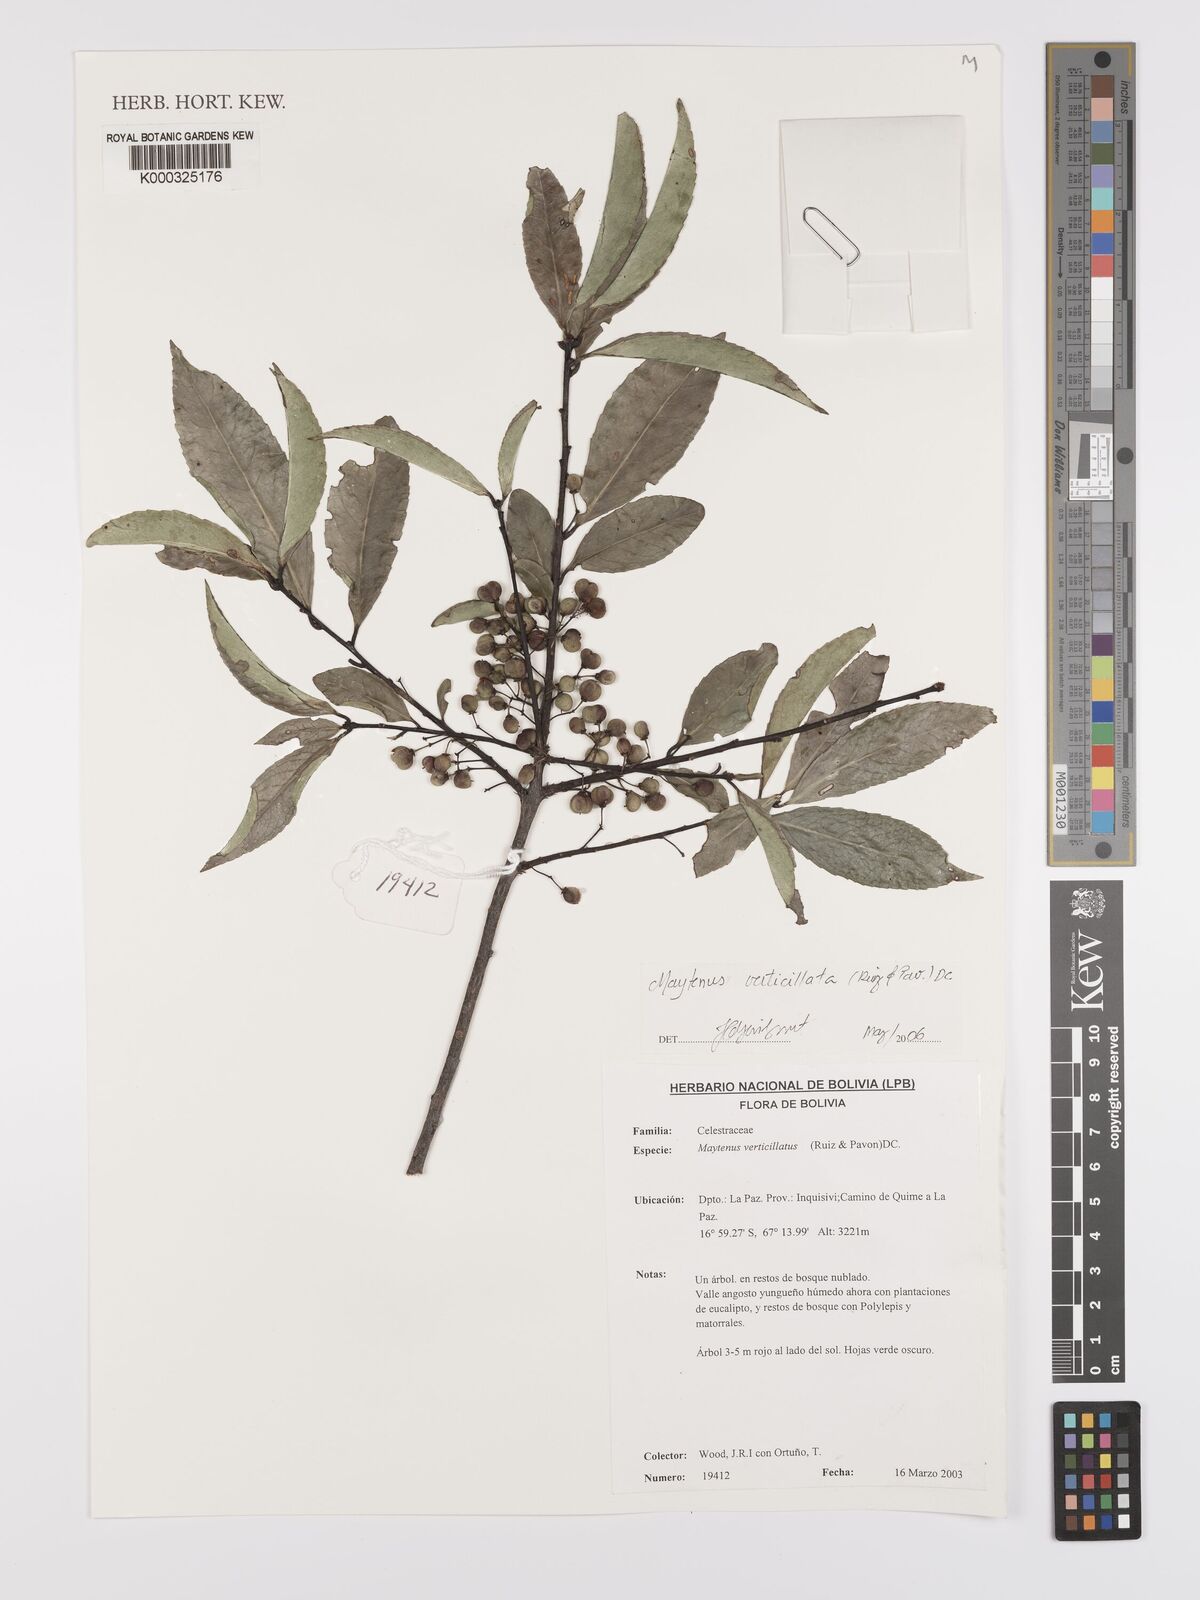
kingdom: Plantae
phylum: Tracheophyta
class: Magnoliopsida
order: Celastrales
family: Celastraceae
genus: Maytenus
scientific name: Maytenus verticillata
